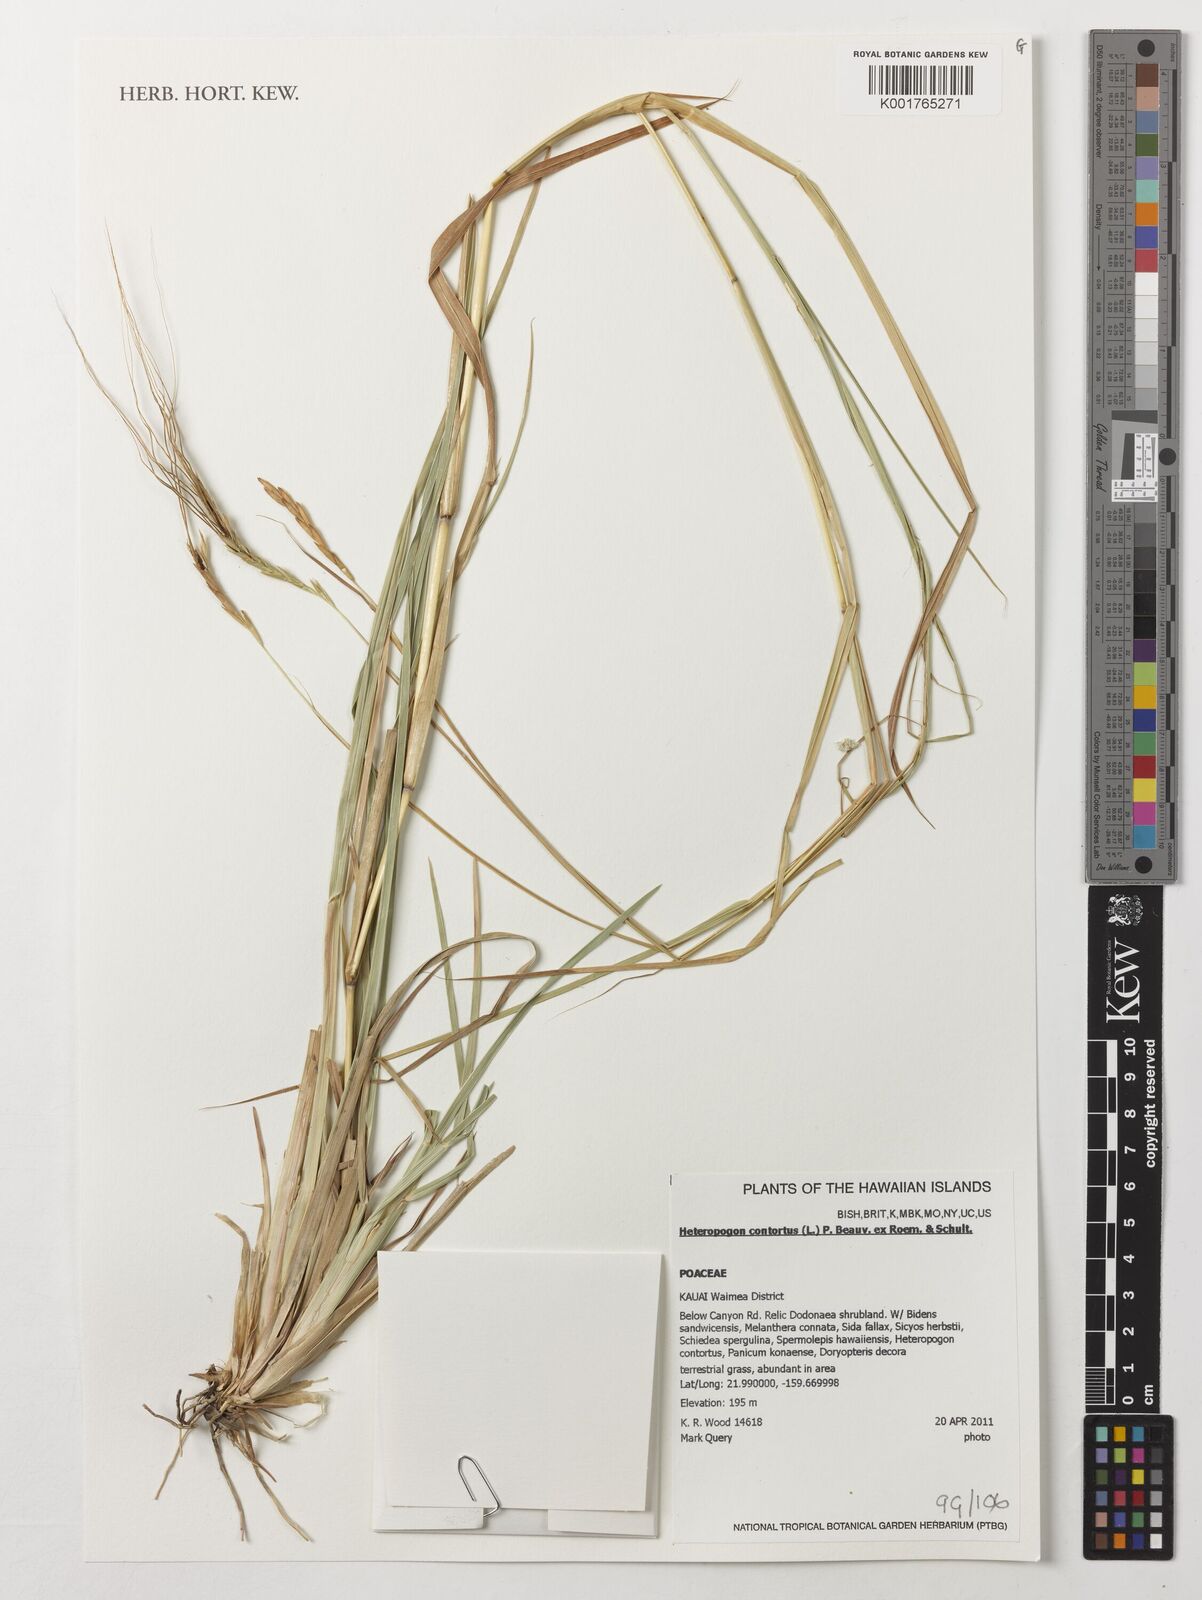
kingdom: Plantae
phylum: Tracheophyta
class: Liliopsida
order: Poales
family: Poaceae
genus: Heteropogon
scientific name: Heteropogon contortus
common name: Tanglehead
